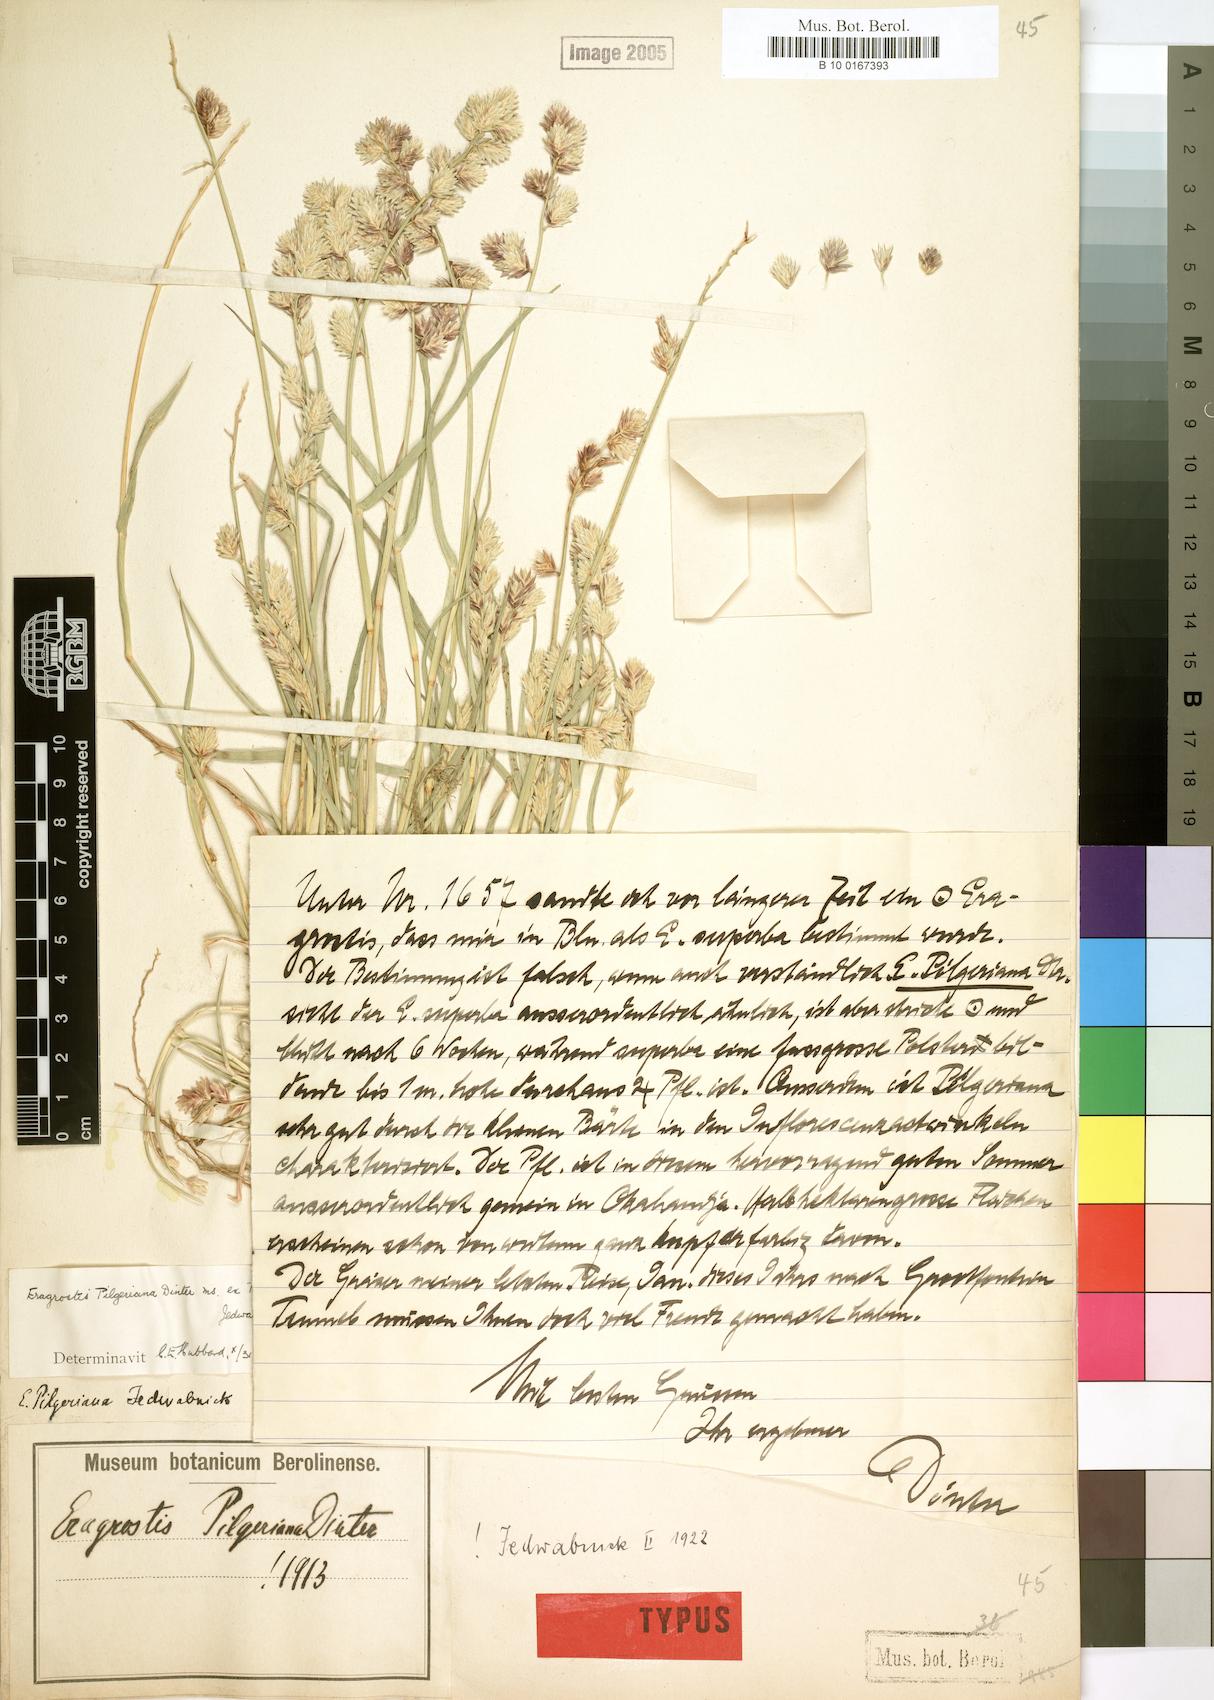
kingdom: Plantae
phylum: Tracheophyta
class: Liliopsida
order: Poales
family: Poaceae
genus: Eragrostis
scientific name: Eragrostis pilgeriana
